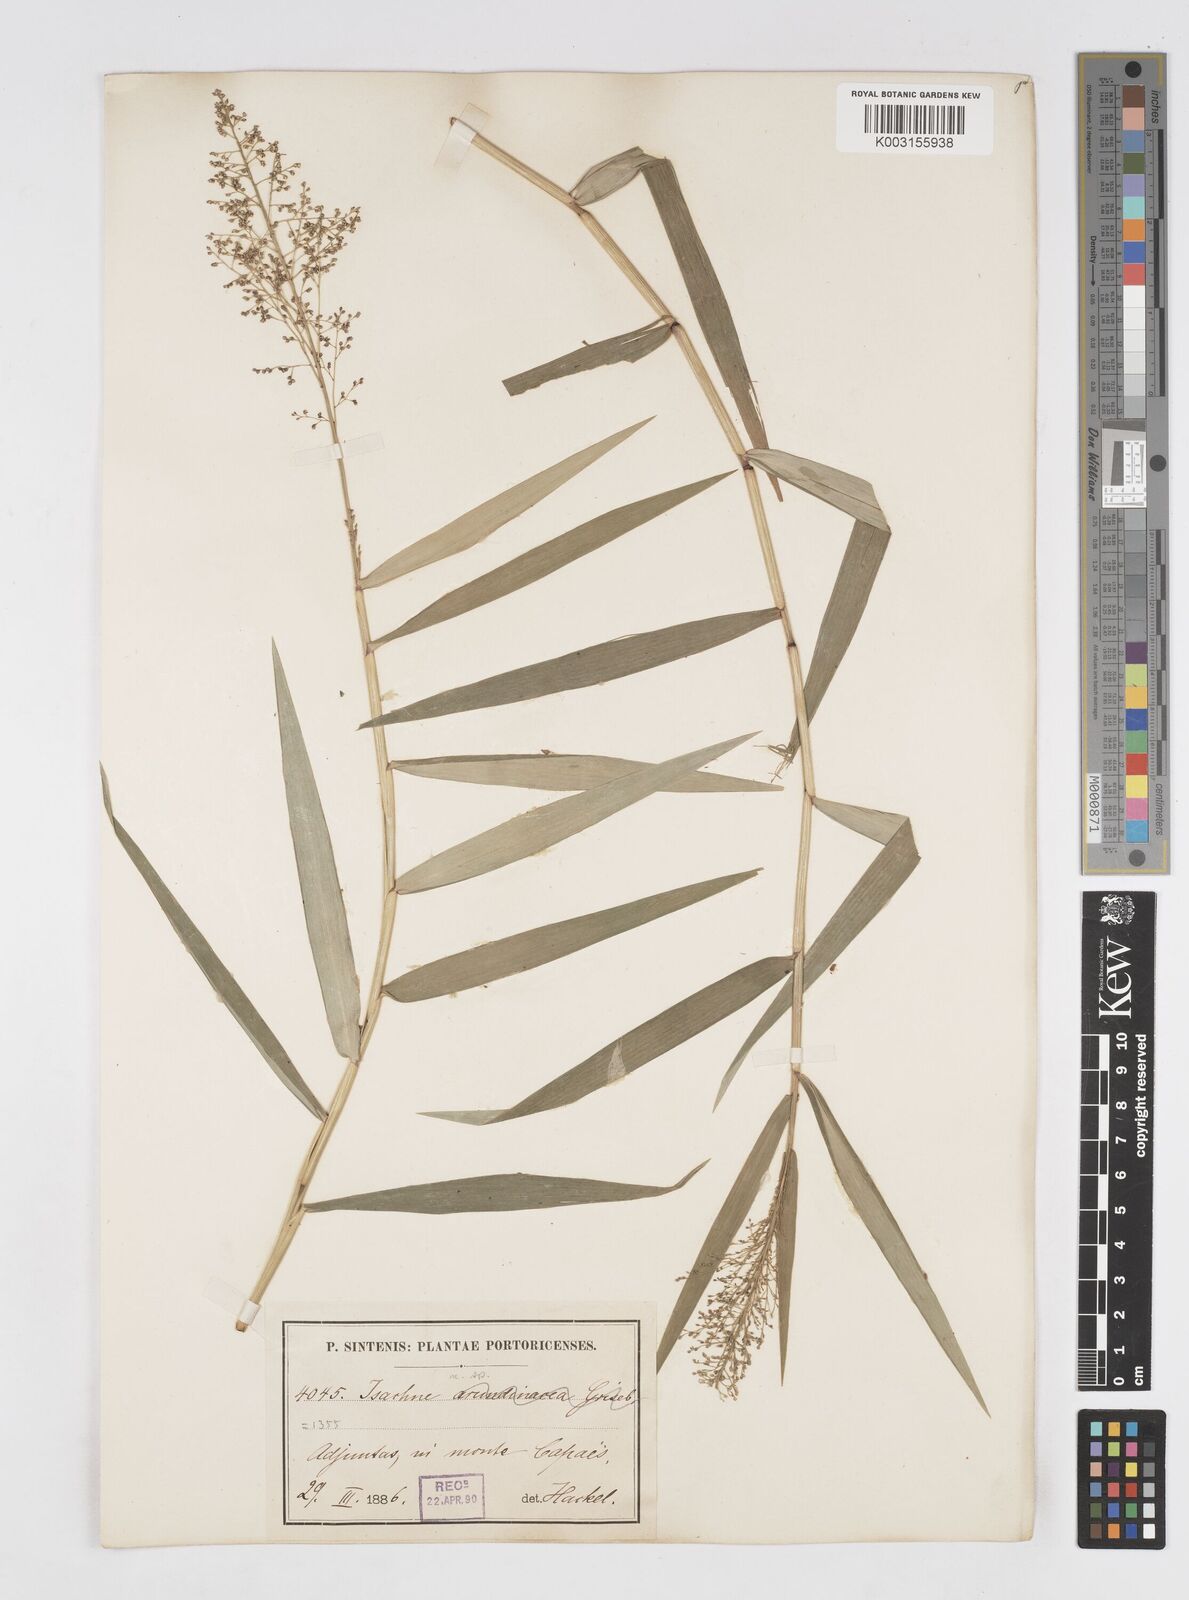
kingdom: Plantae
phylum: Tracheophyta
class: Liliopsida
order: Poales
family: Poaceae
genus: Isachne
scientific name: Isachne
